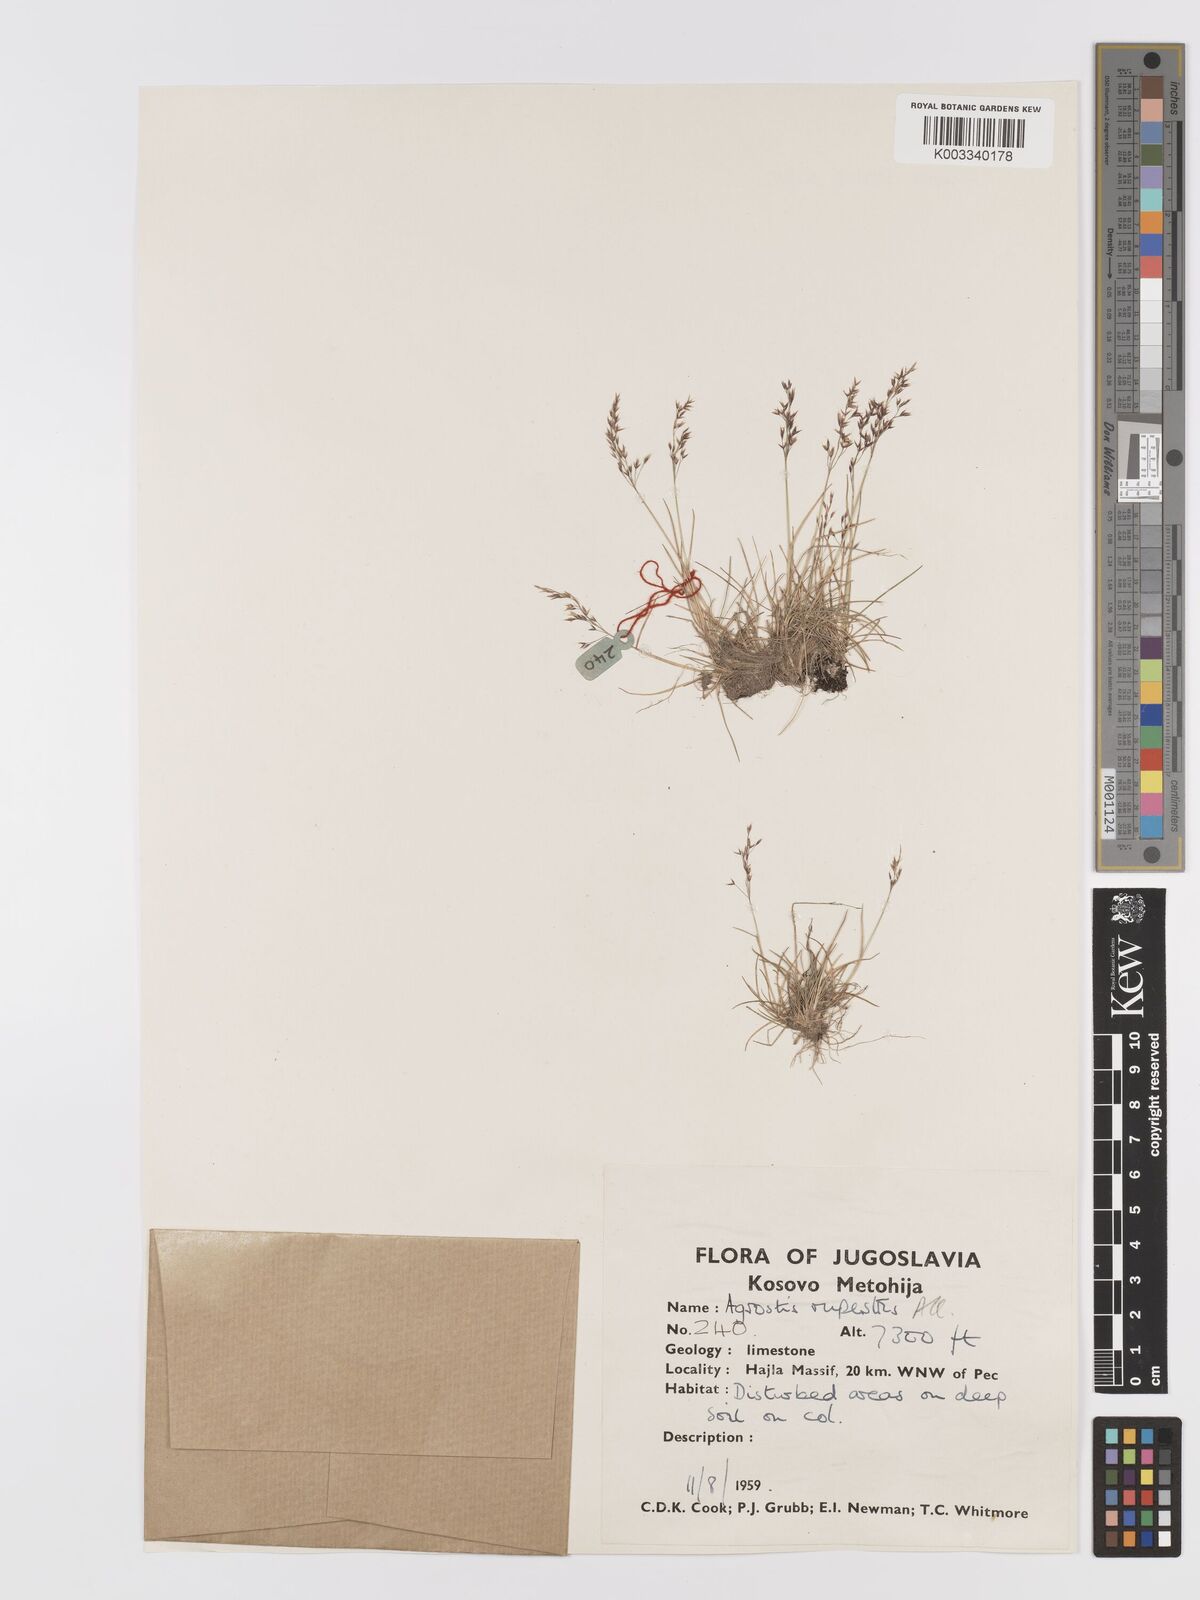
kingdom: Plantae
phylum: Tracheophyta
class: Liliopsida
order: Poales
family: Poaceae
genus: Agrostis
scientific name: Agrostis rupestris
